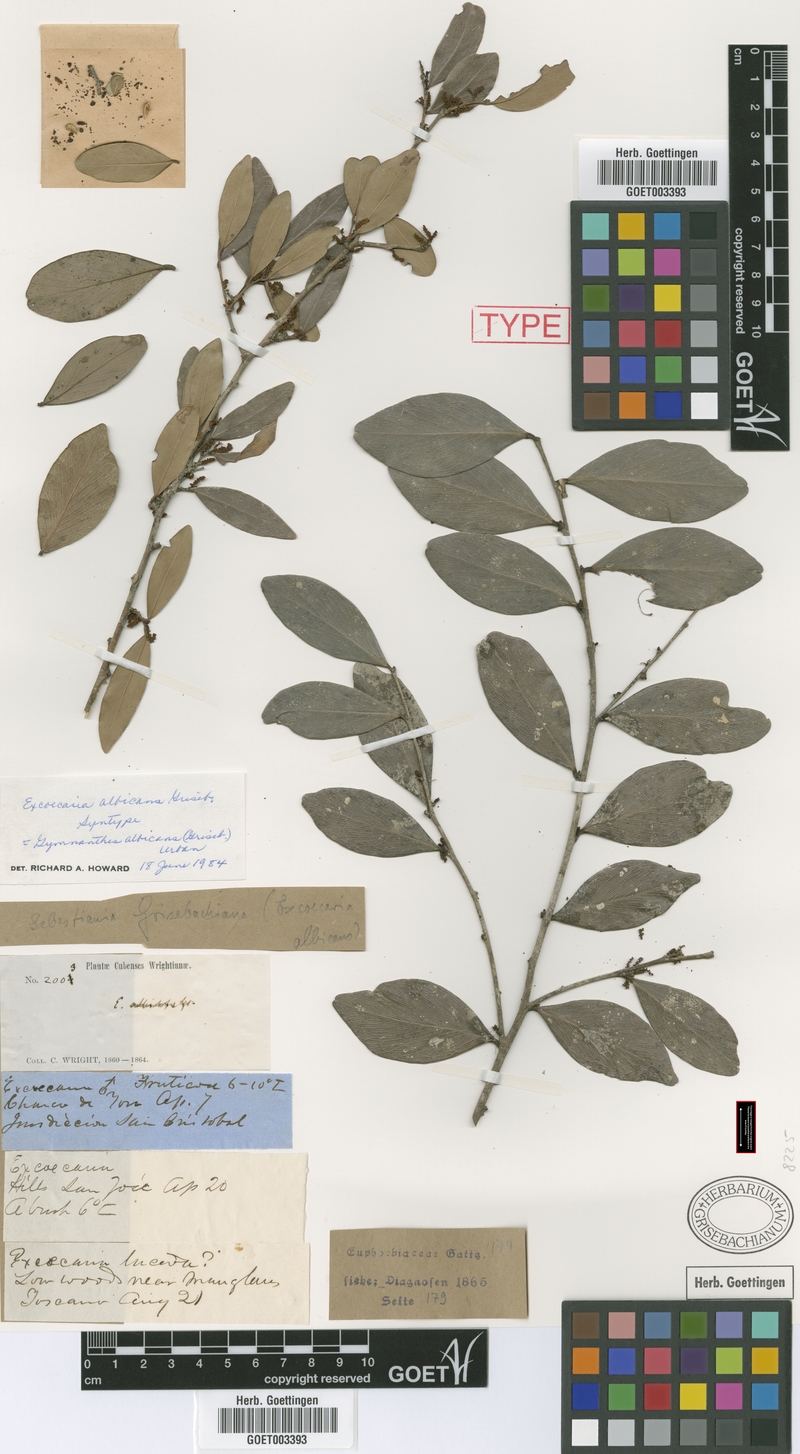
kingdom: Plantae
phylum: Tracheophyta
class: Magnoliopsida
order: Malpighiales
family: Euphorbiaceae
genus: Gymnanthes
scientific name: Gymnanthes albicans
